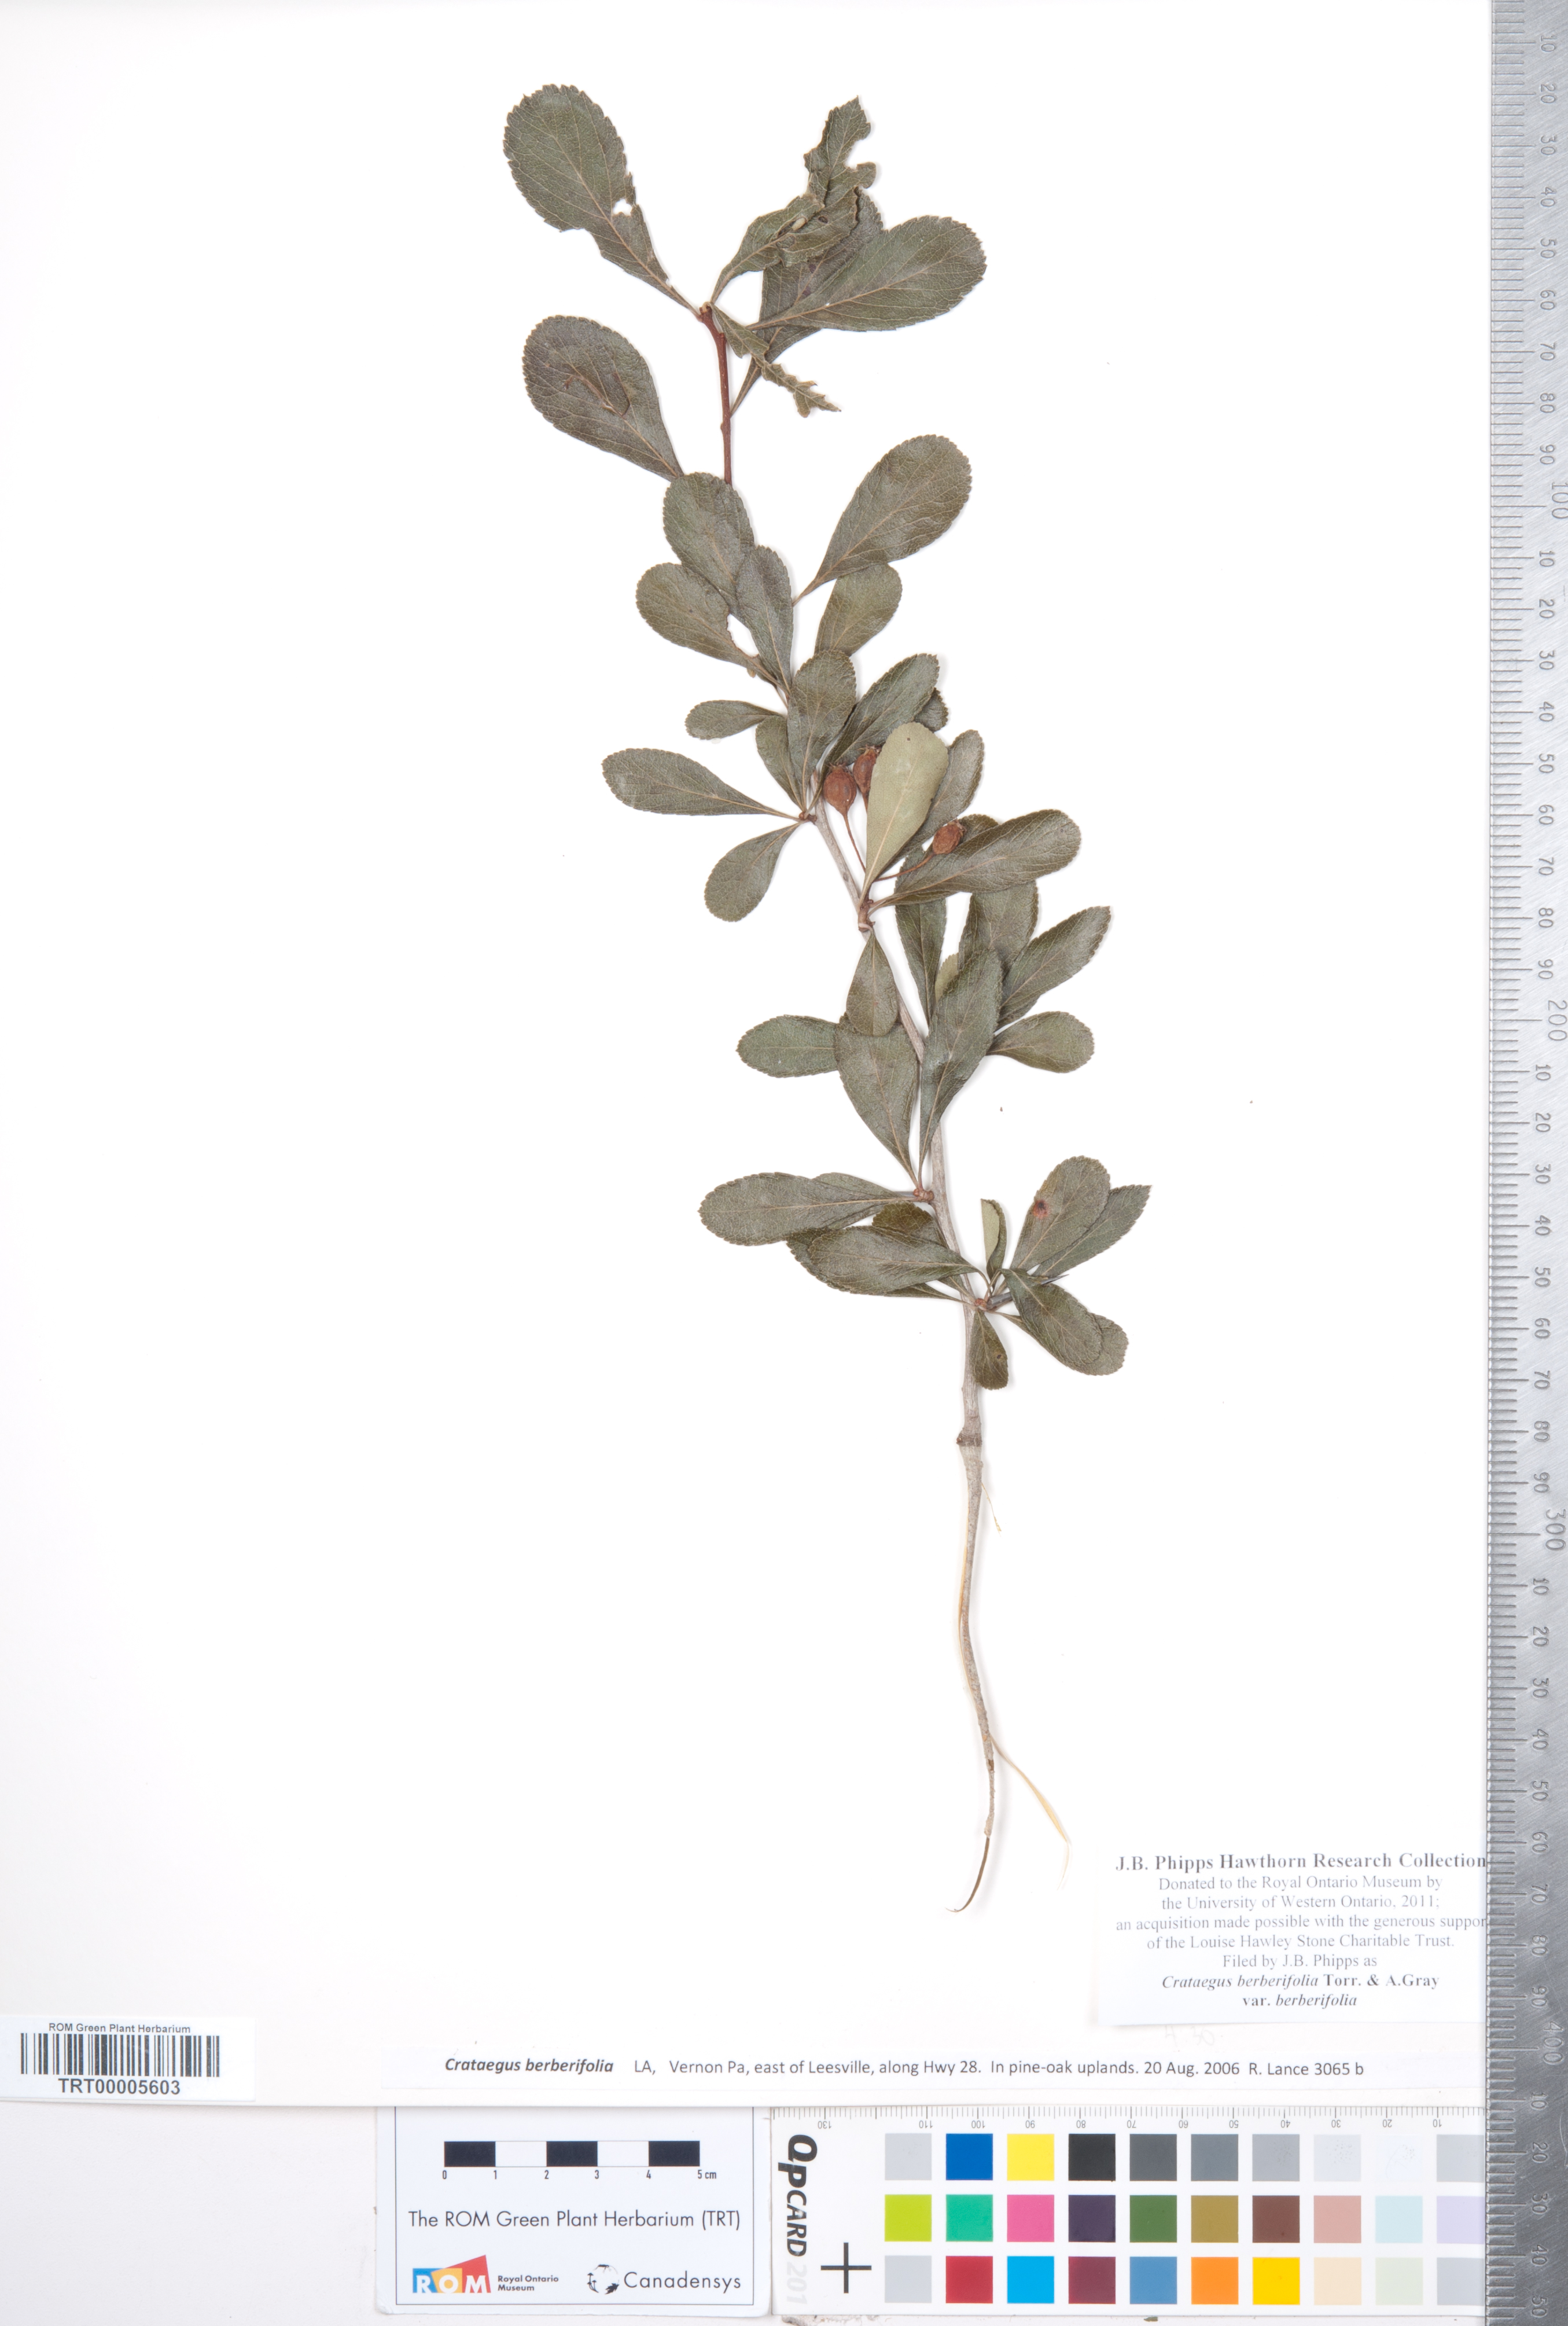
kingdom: Plantae
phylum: Tracheophyta
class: Magnoliopsida
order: Rosales
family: Rosaceae
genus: Crataegus
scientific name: Crataegus berberifolia
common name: Barberry hawthorn
